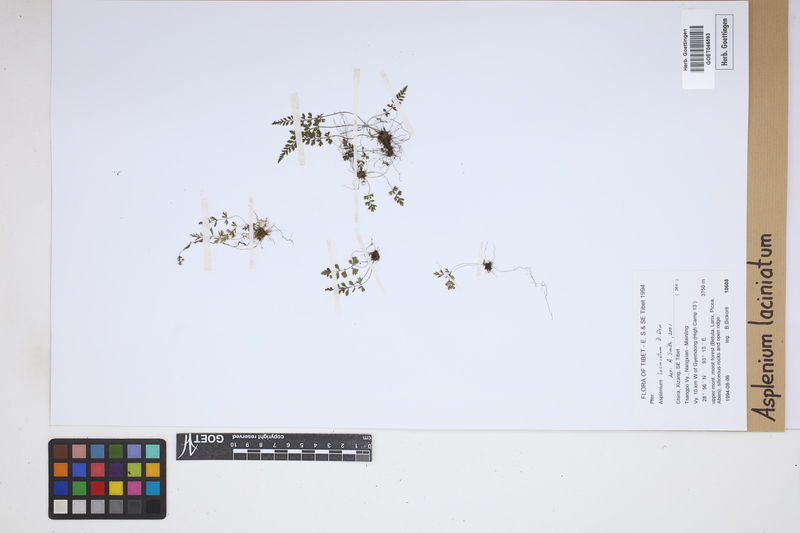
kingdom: Plantae
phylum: Tracheophyta
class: Polypodiopsida
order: Polypodiales
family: Aspleniaceae
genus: Asplenium
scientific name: Asplenium laciniatum
